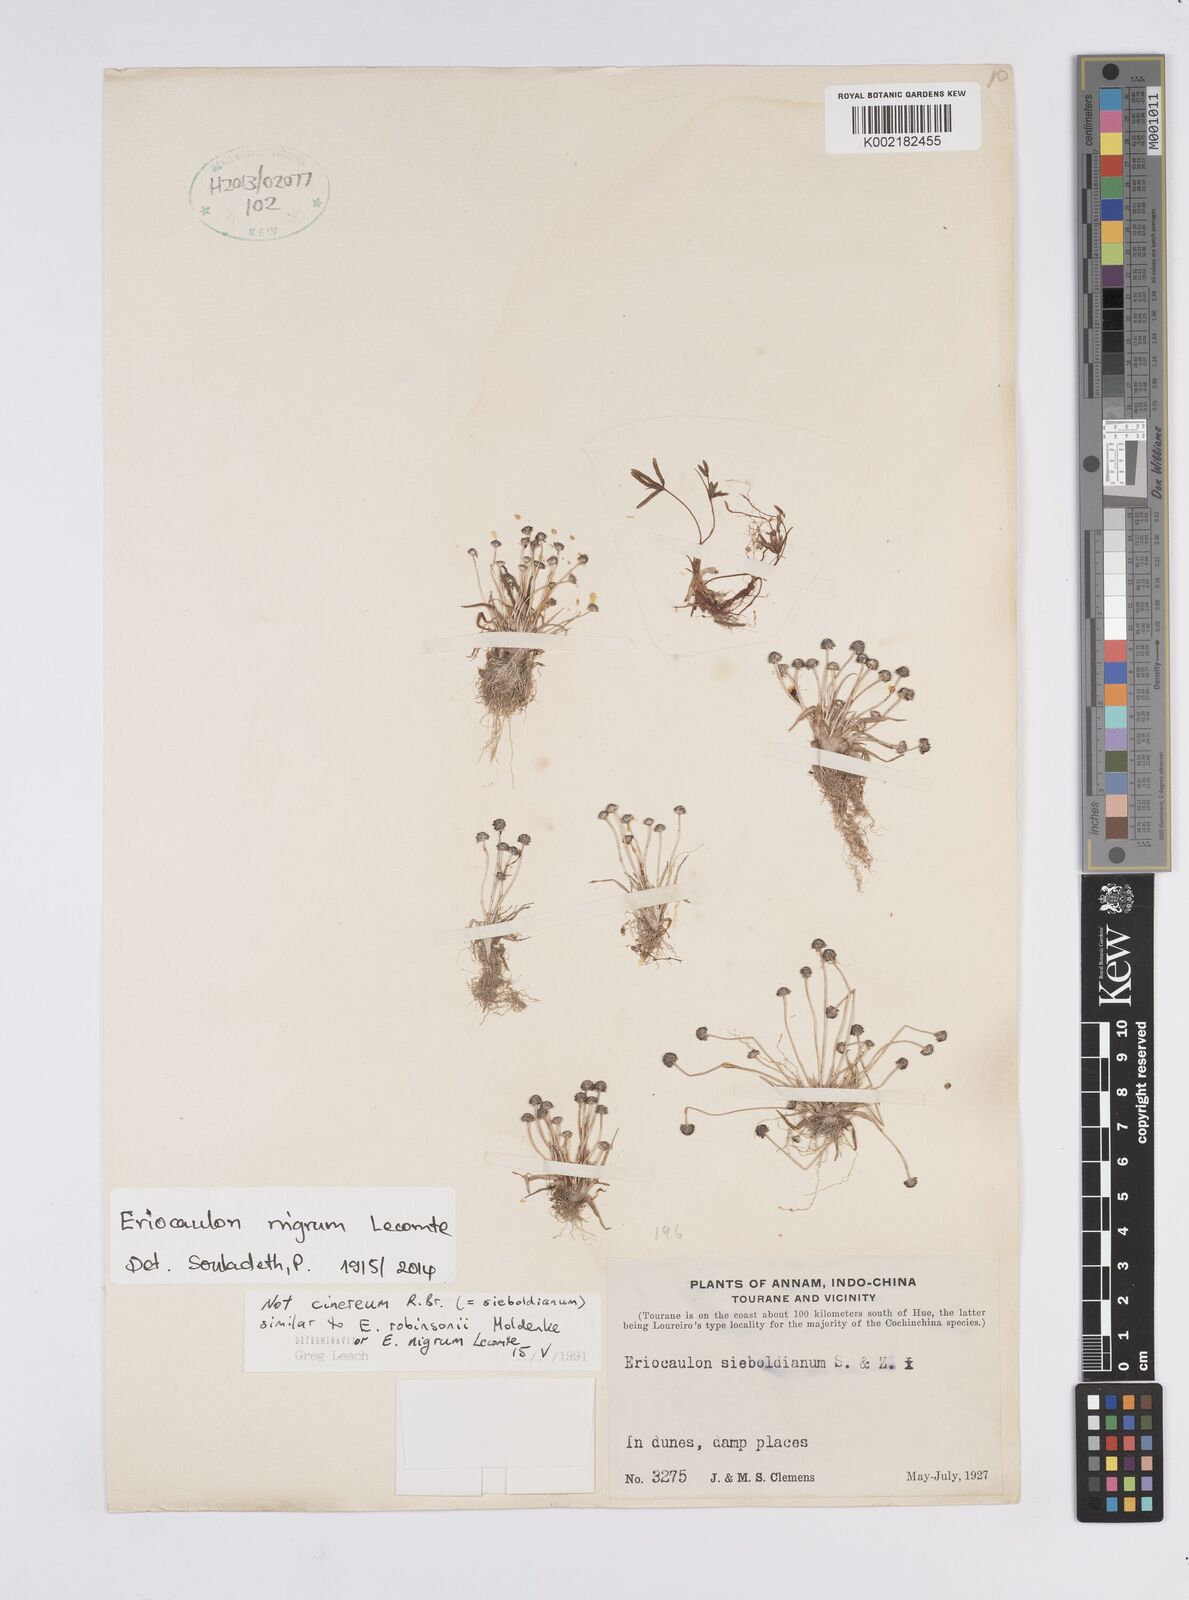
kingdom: Plantae
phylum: Tracheophyta
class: Liliopsida
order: Poales
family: Eriocaulaceae
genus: Eriocaulon
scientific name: Eriocaulon nigrum
